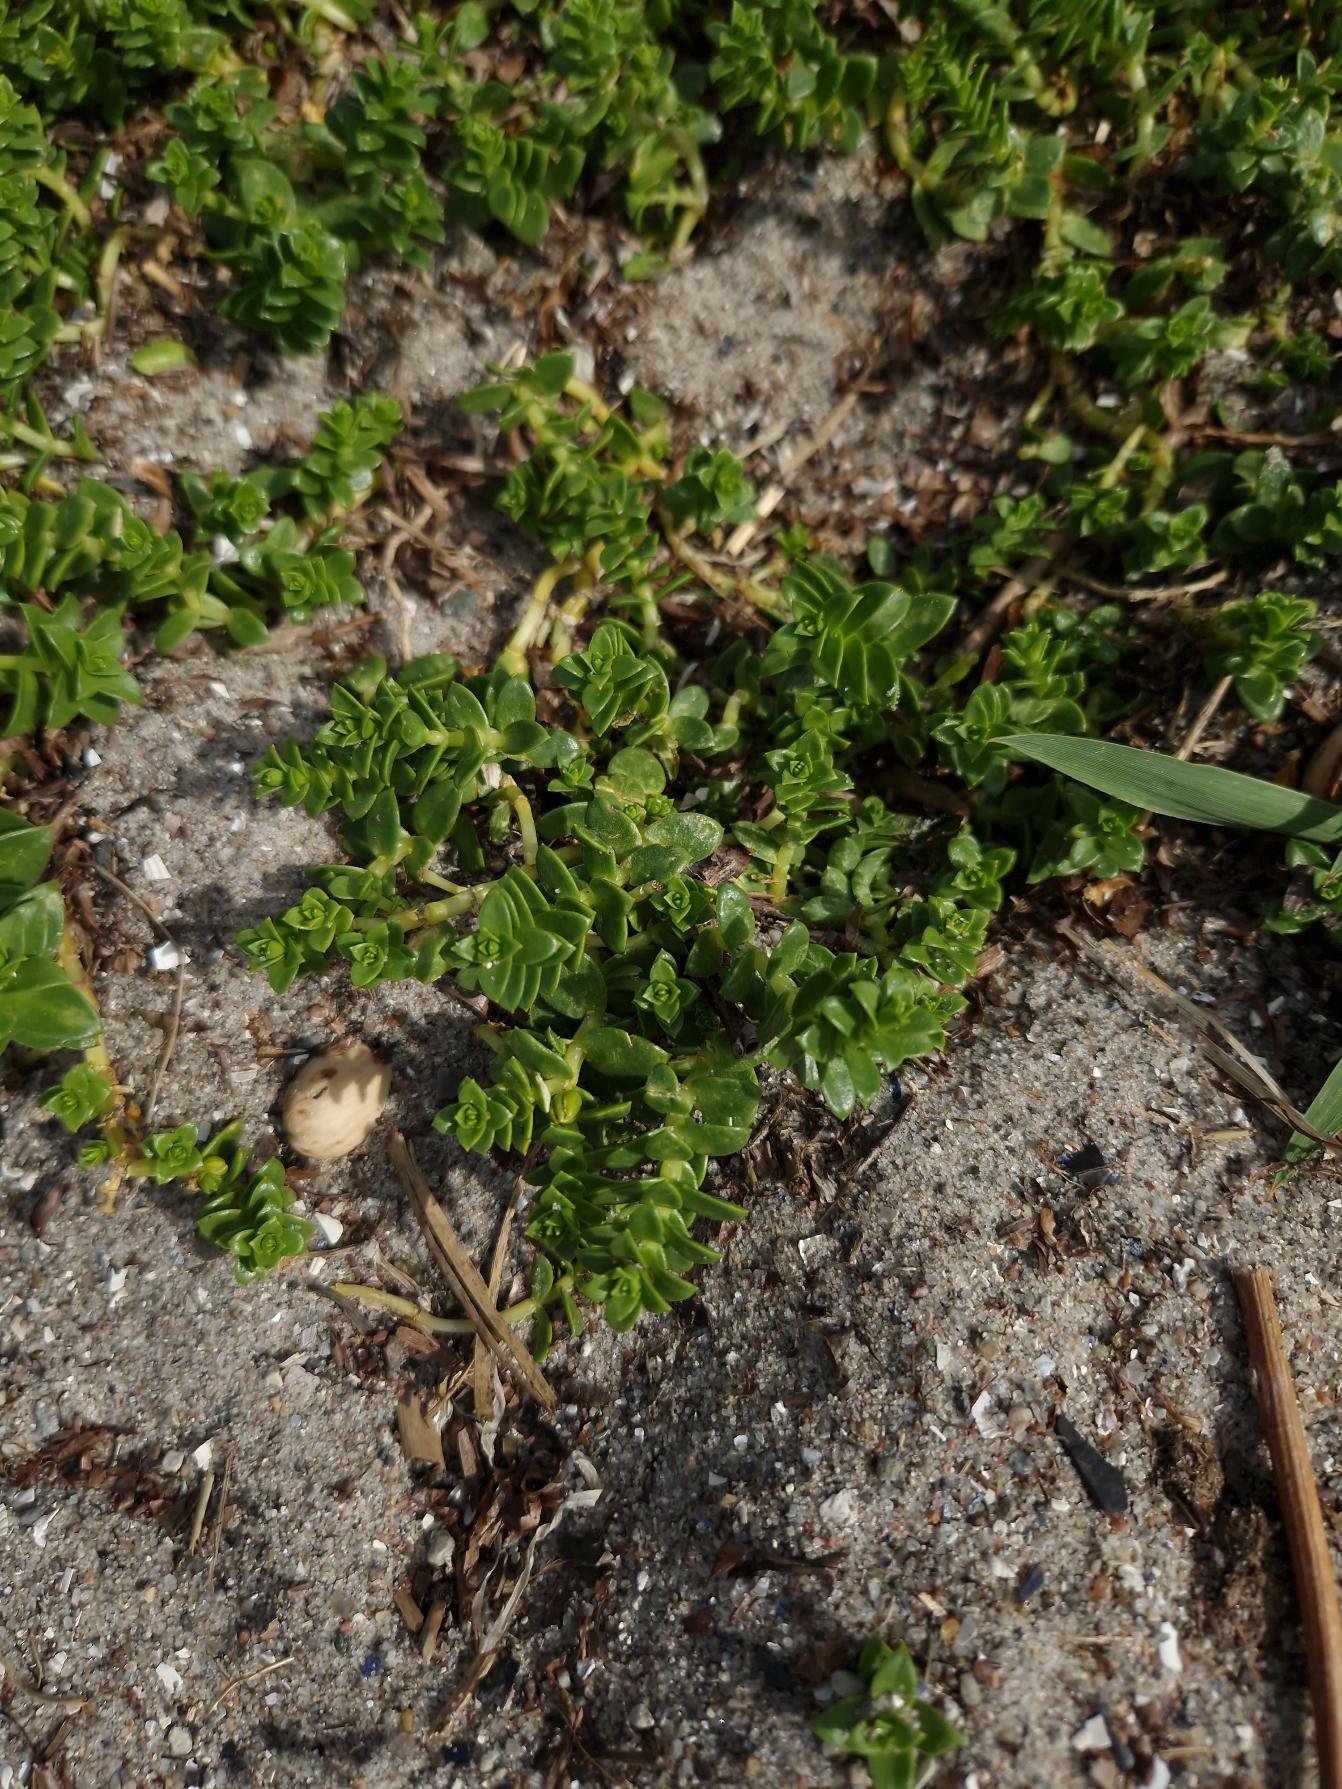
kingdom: Plantae
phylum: Tracheophyta
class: Magnoliopsida
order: Caryophyllales
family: Caryophyllaceae
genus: Honckenya
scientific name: Honckenya peploides
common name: Strandarve
